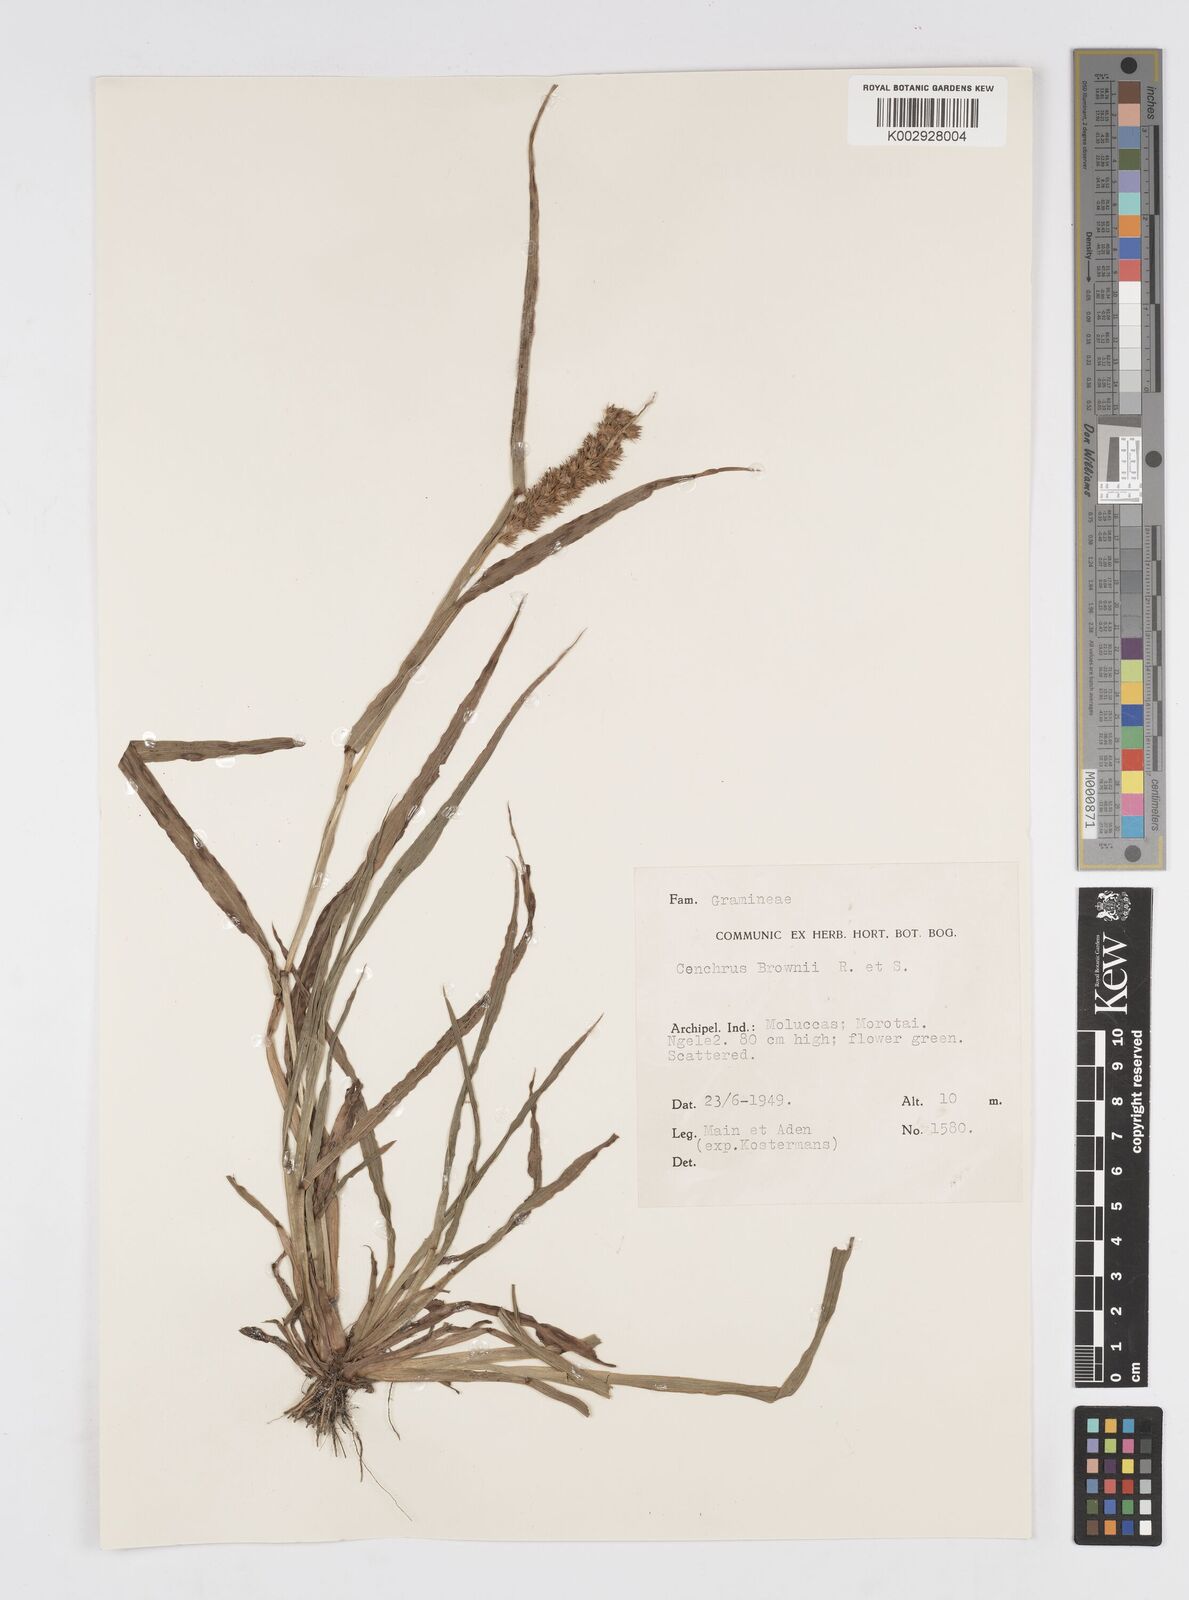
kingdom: Plantae
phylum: Tracheophyta
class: Liliopsida
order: Poales
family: Poaceae
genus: Cenchrus
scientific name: Cenchrus brownii
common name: Slim-bristle sandbur
